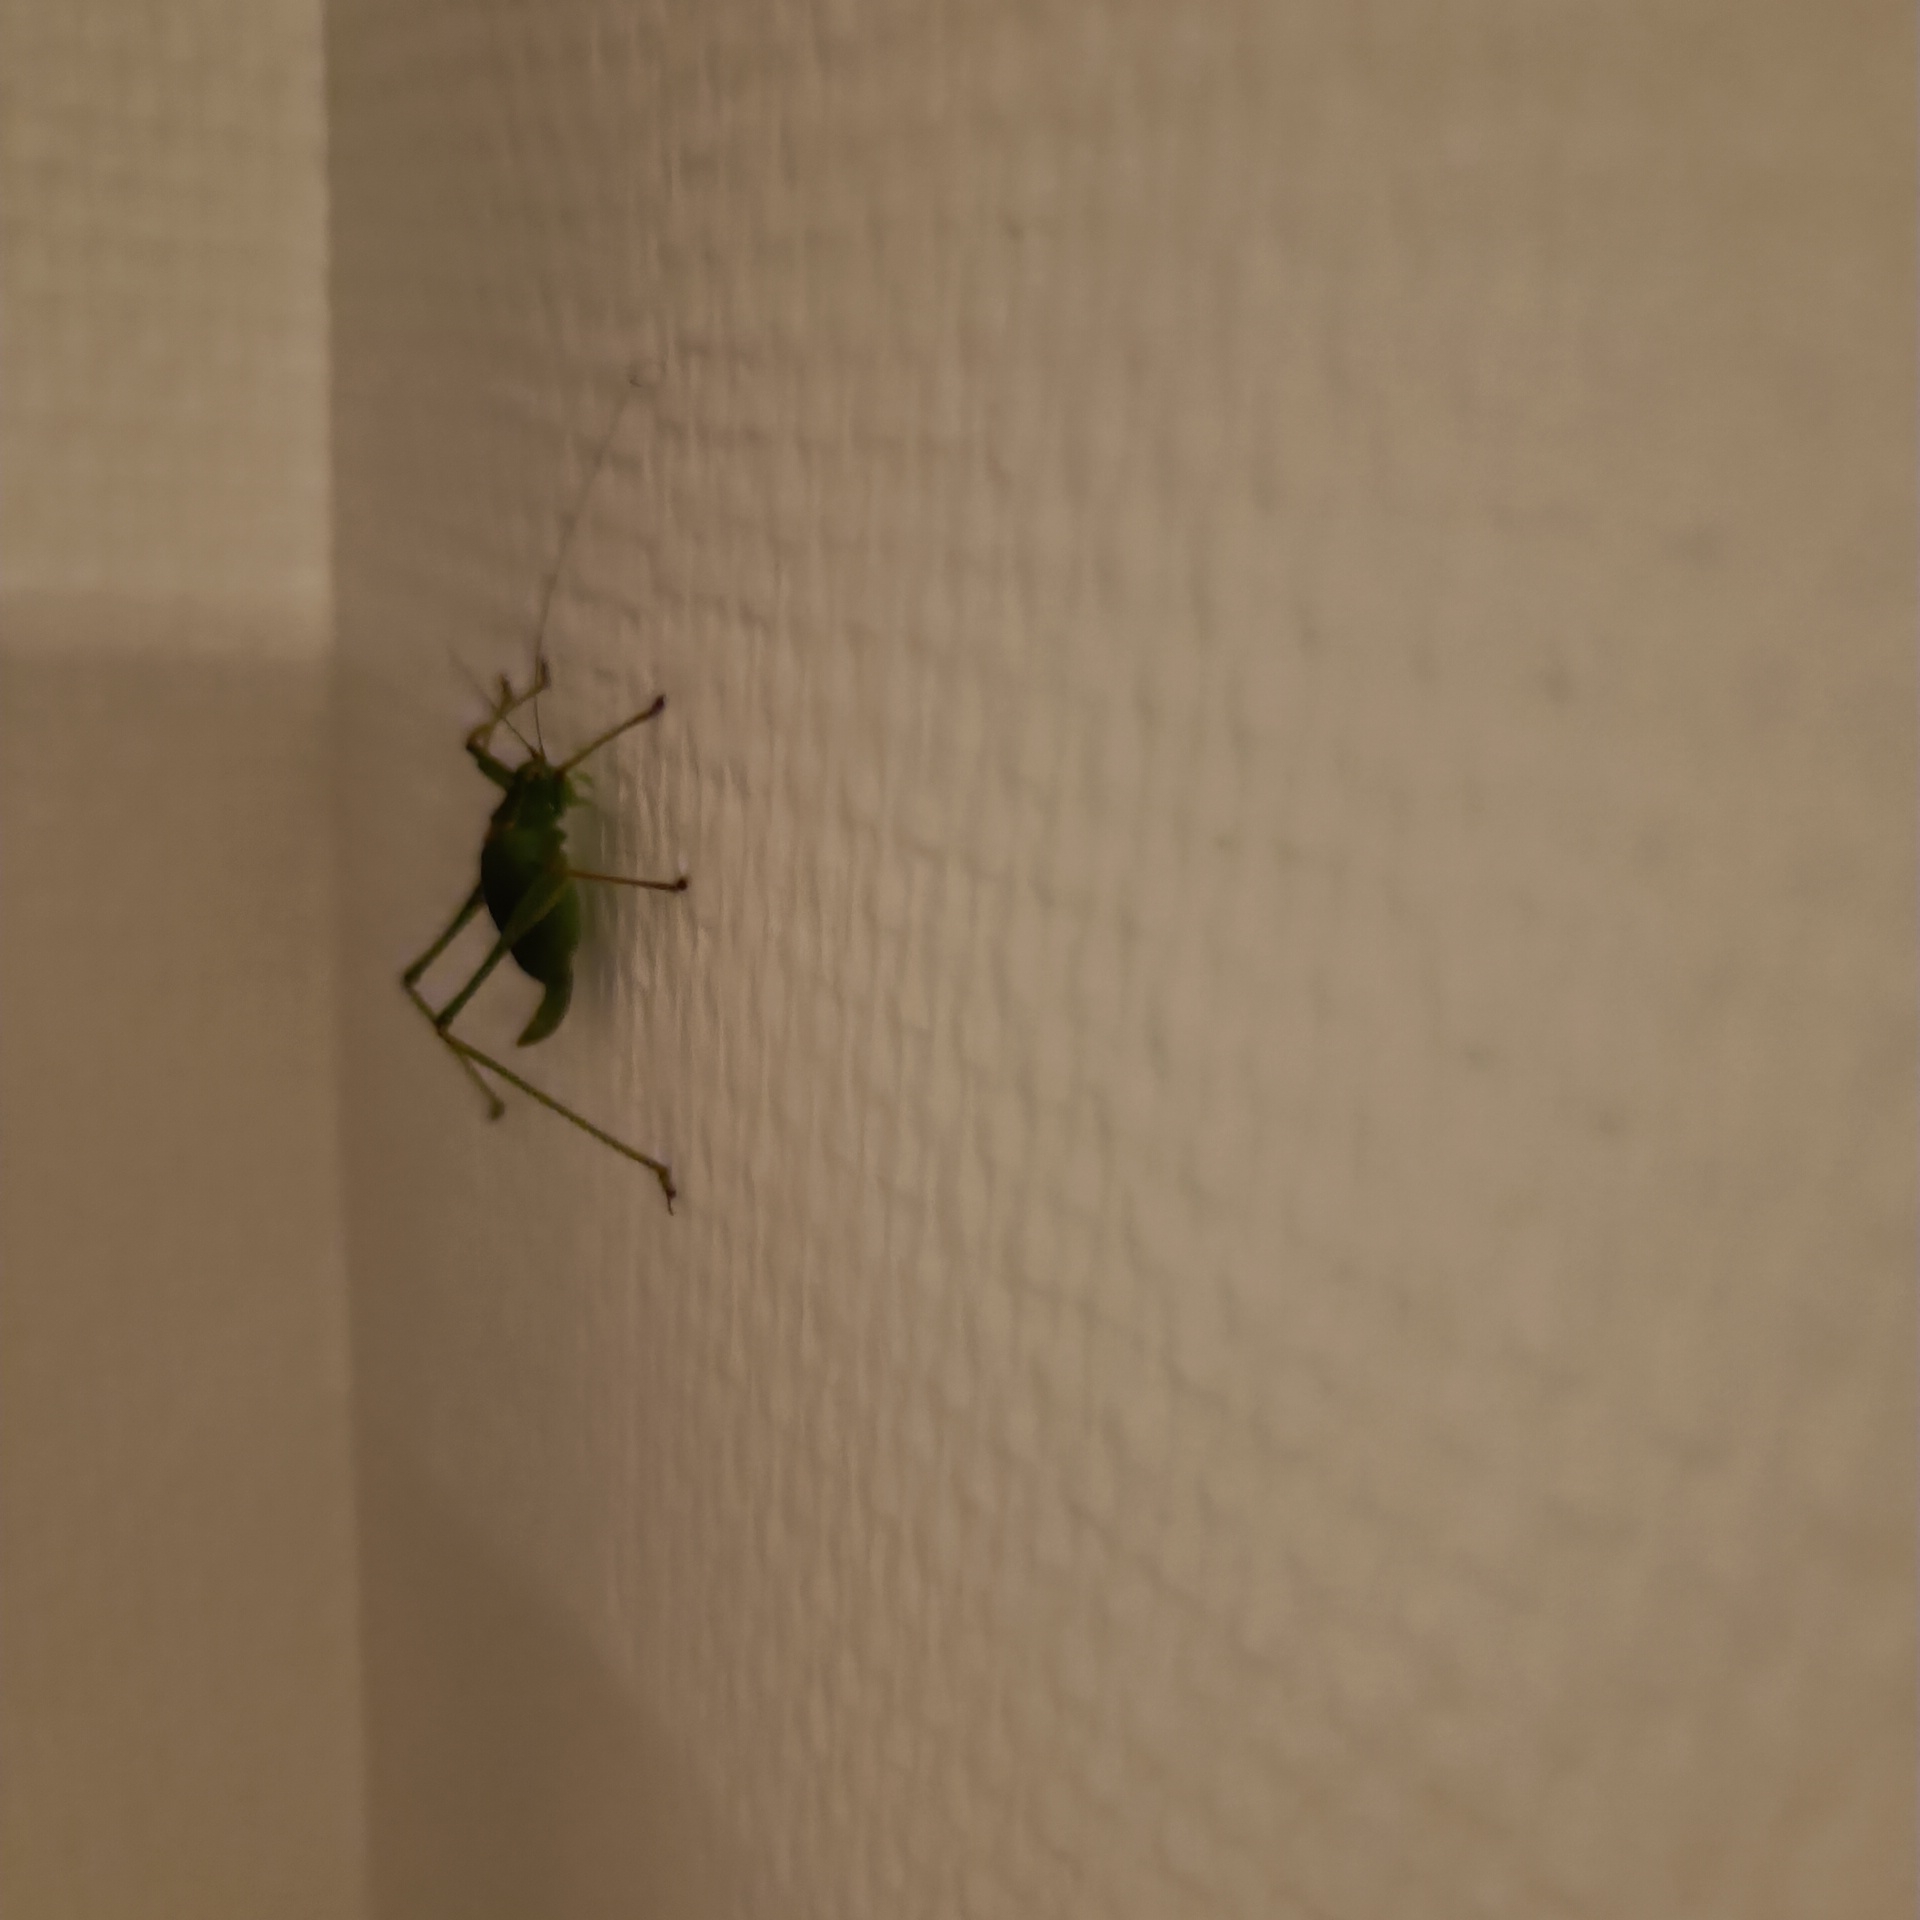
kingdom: Animalia
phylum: Arthropoda
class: Insecta
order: Orthoptera
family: Tettigoniidae
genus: Leptophyes
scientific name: Leptophyes punctatissima
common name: Krumknivgræshoppe
